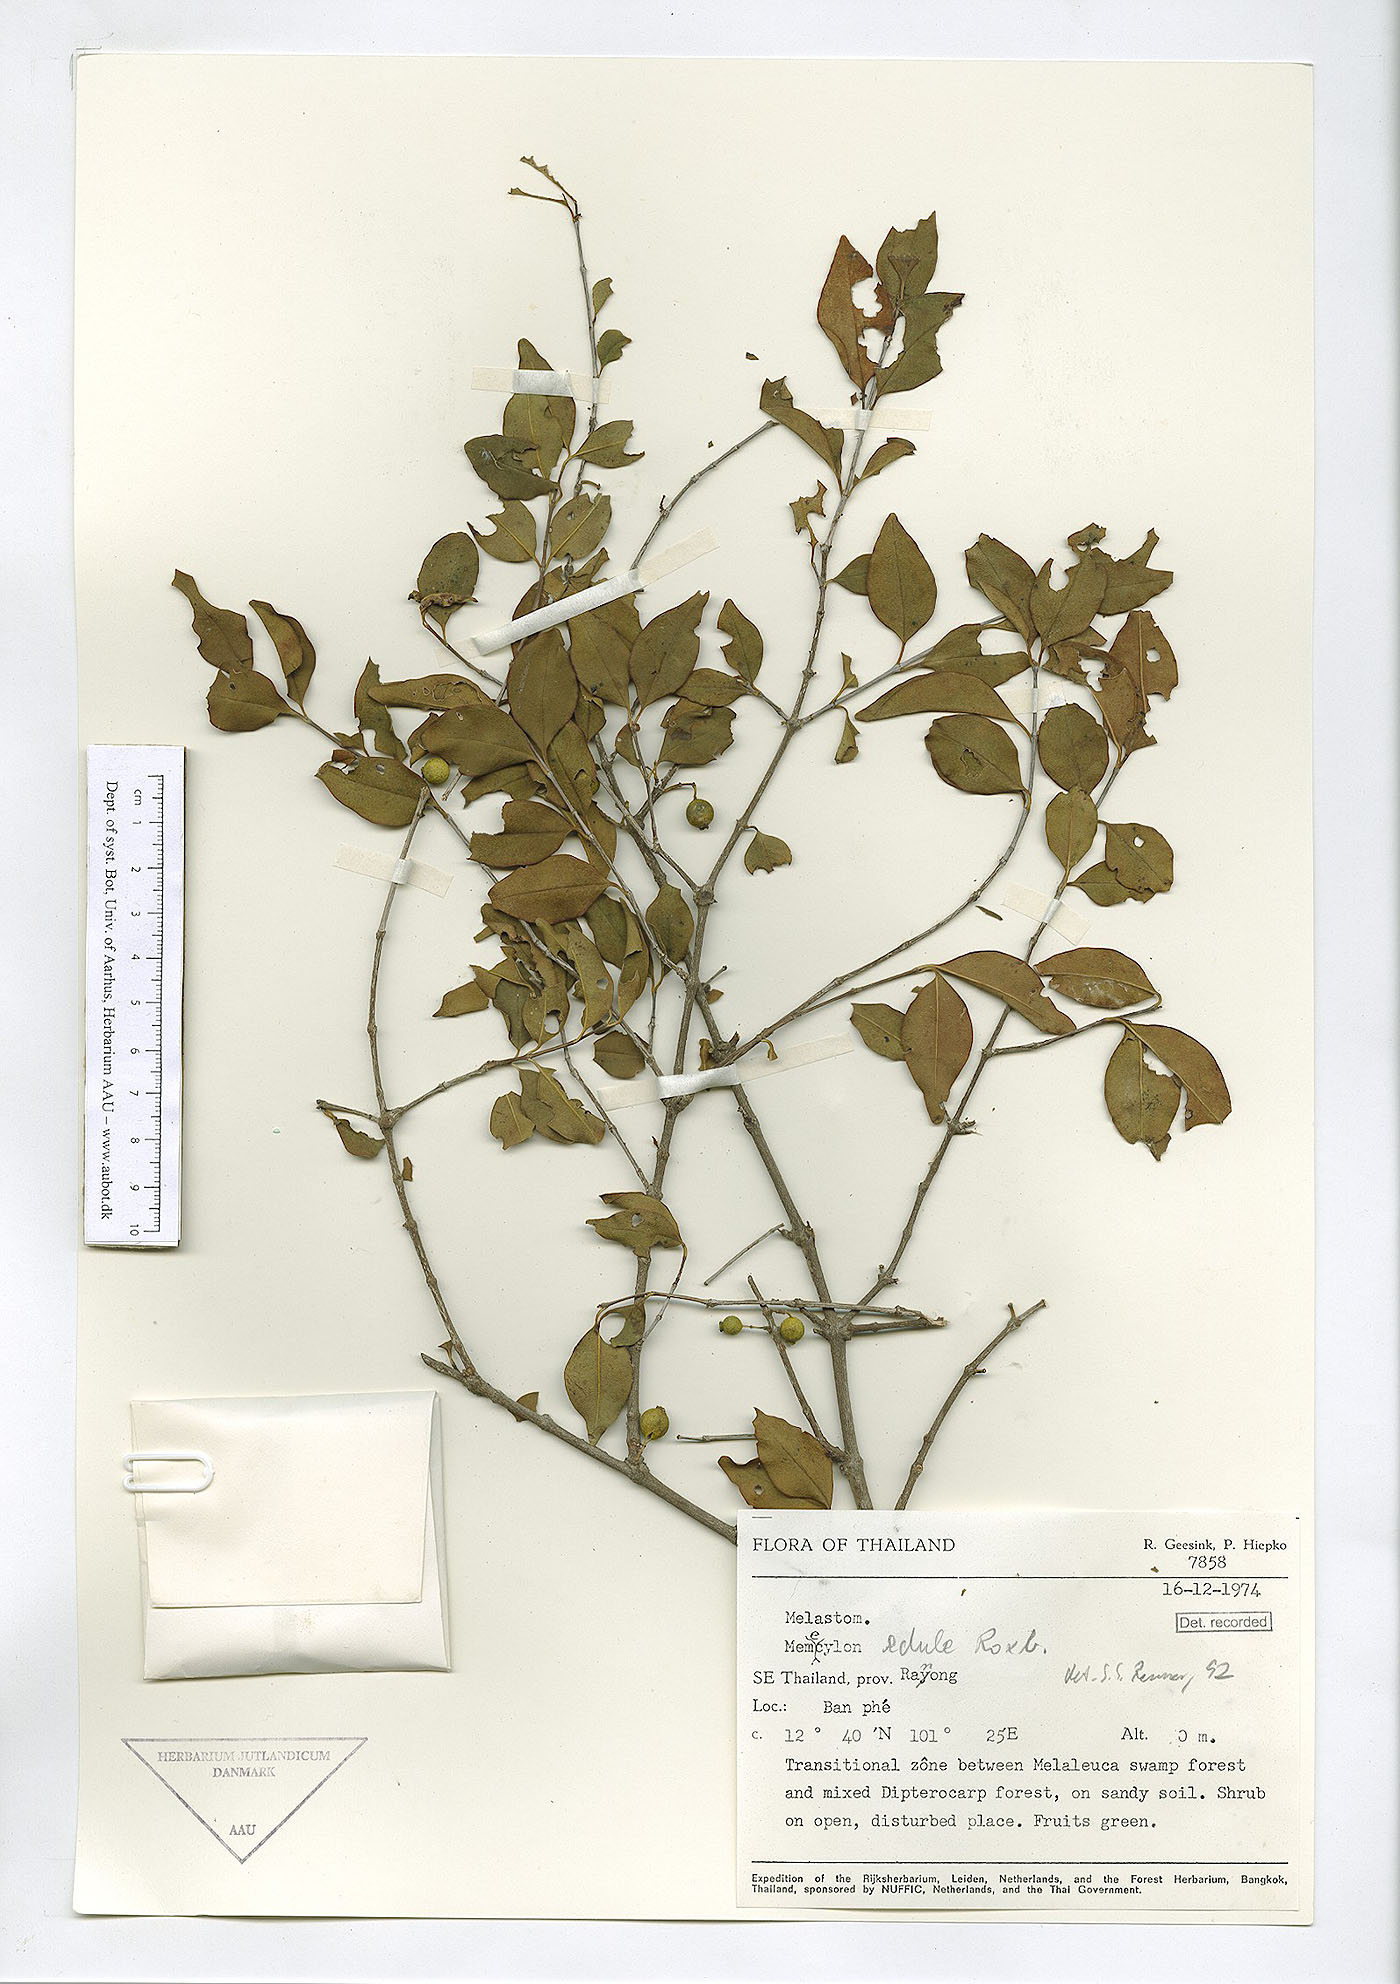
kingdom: Plantae
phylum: Tracheophyta
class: Magnoliopsida
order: Myrtales
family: Melastomataceae
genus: Memecylon
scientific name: Memecylon scutellatum
